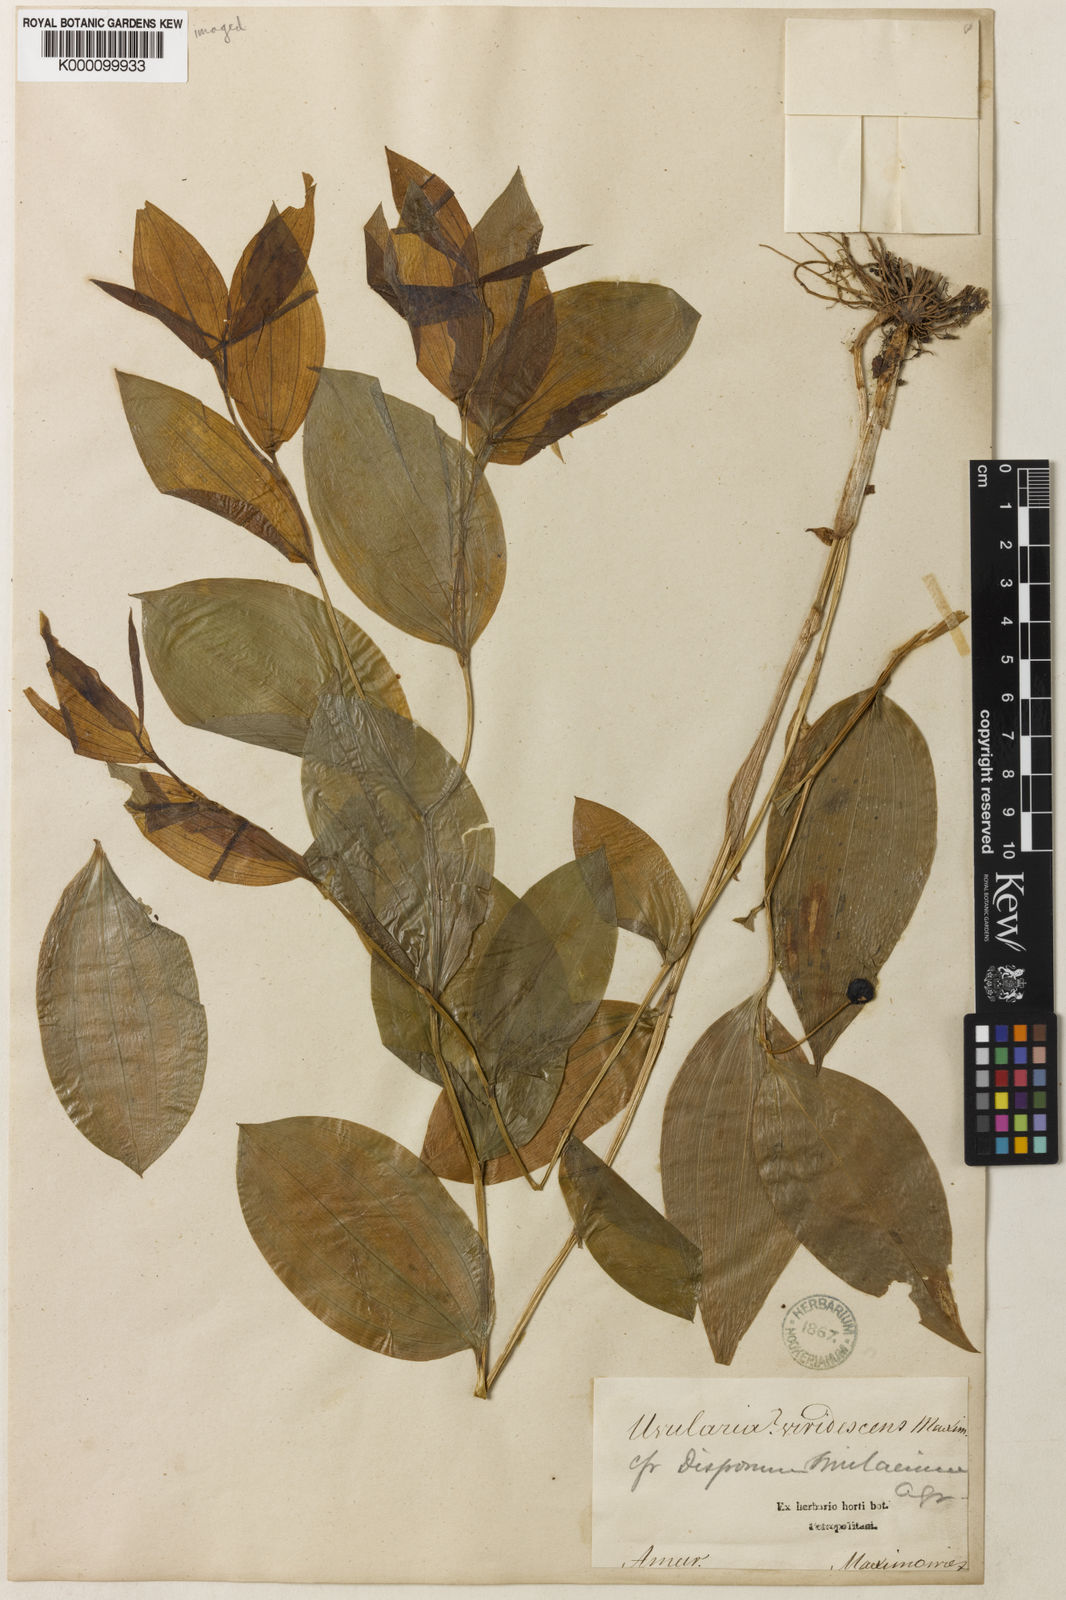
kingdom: Plantae
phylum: Tracheophyta
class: Liliopsida
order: Liliales
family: Colchicaceae
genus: Disporum
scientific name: Disporum smilacinum
